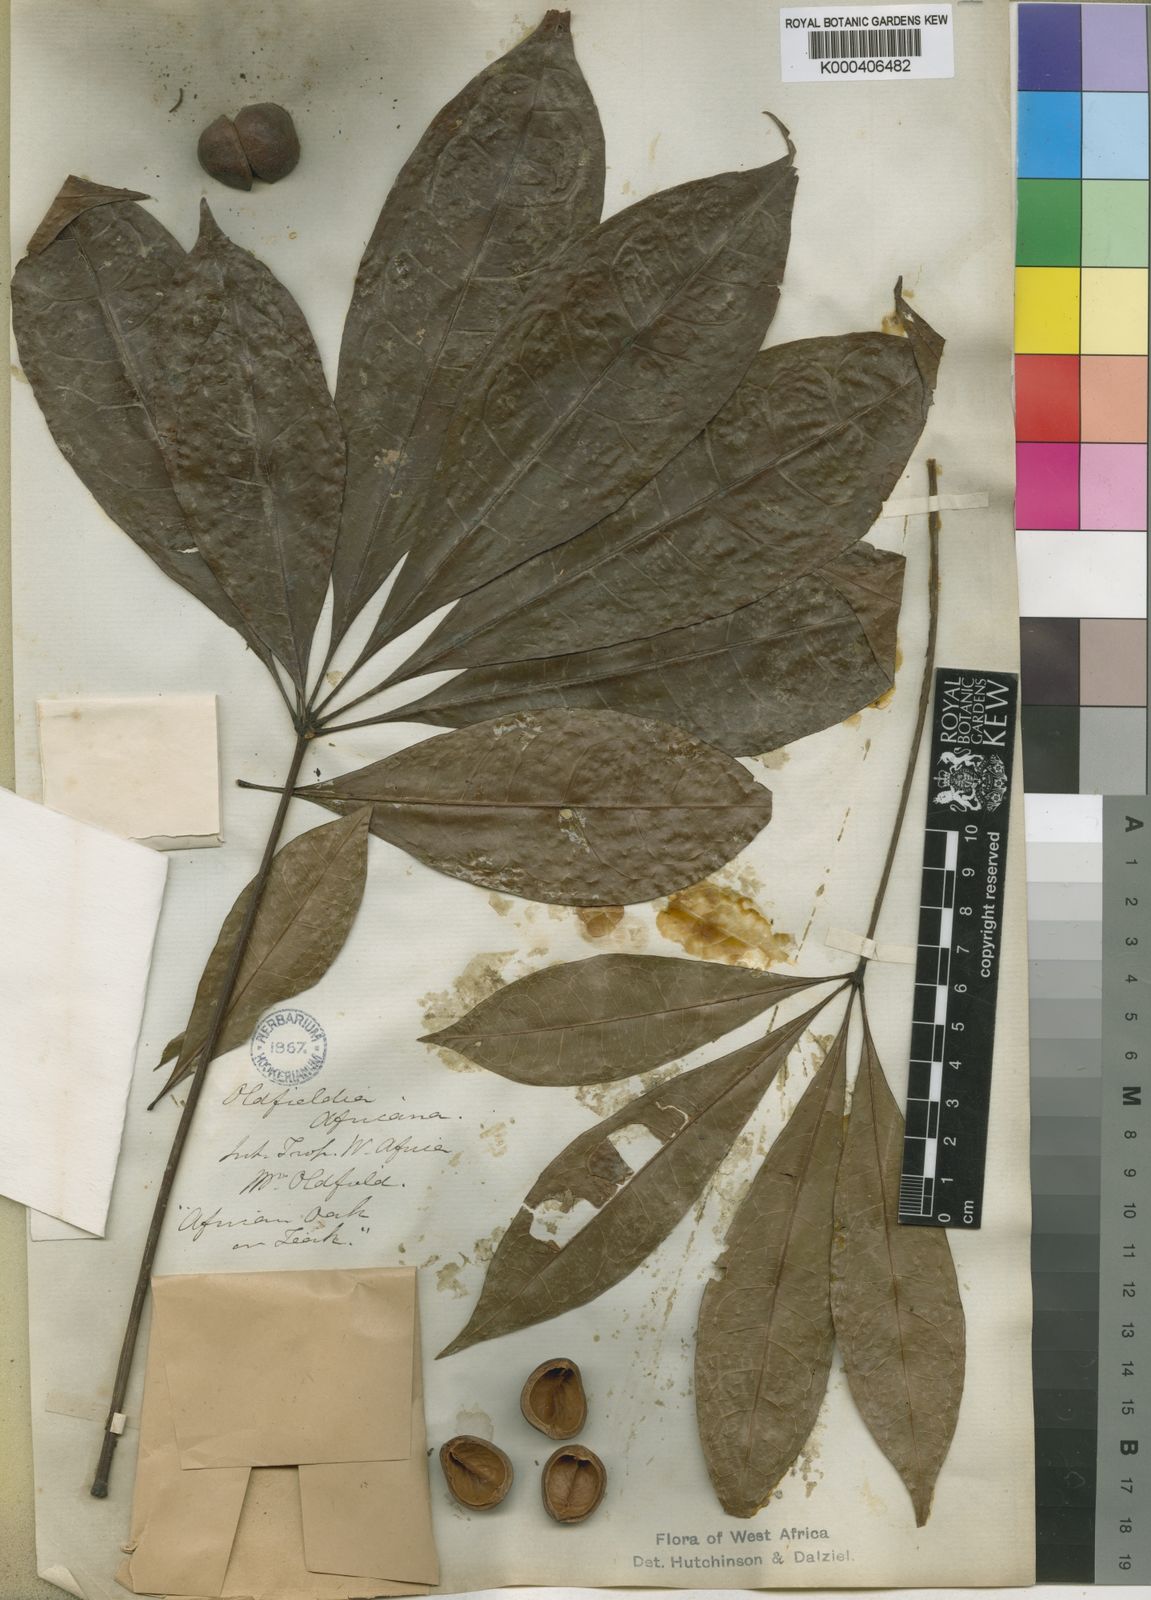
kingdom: Plantae
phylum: Tracheophyta
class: Magnoliopsida
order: Malpighiales
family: Picrodendraceae
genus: Oldfieldia
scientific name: Oldfieldia africana
